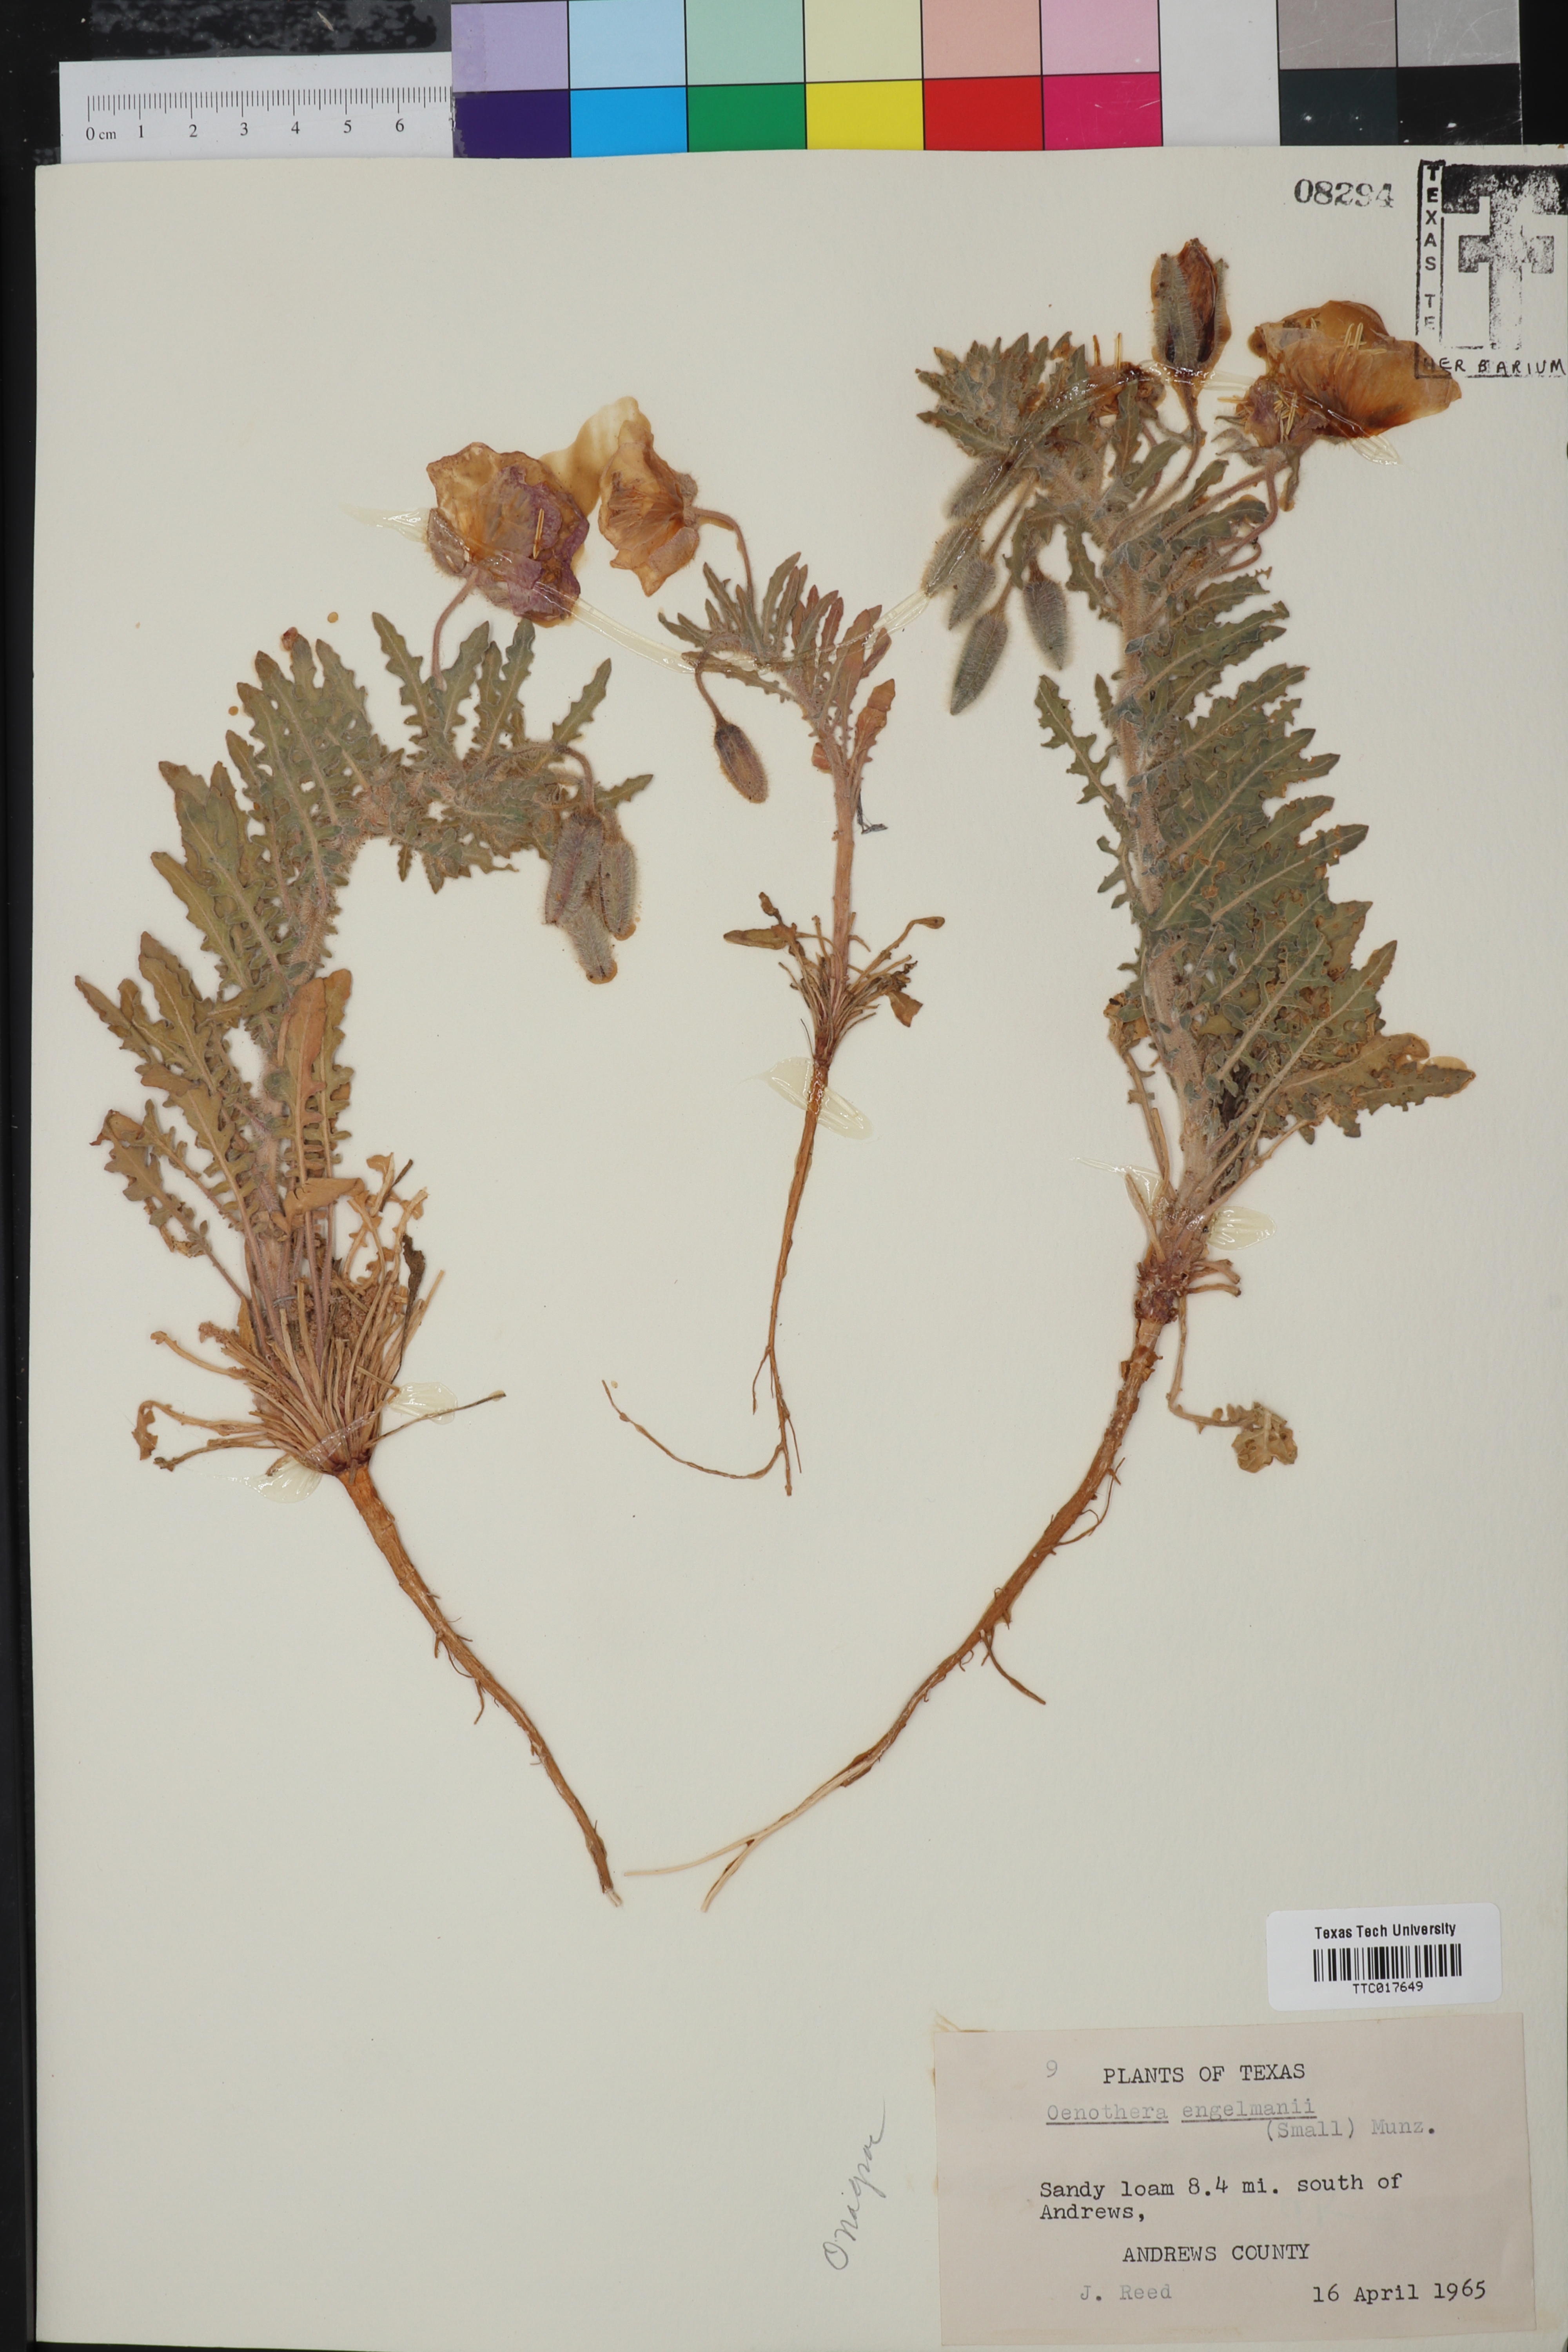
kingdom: Plantae
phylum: Tracheophyta
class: Magnoliopsida
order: Myrtales
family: Onagraceae
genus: Oenothera
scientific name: Oenothera engelmannii
